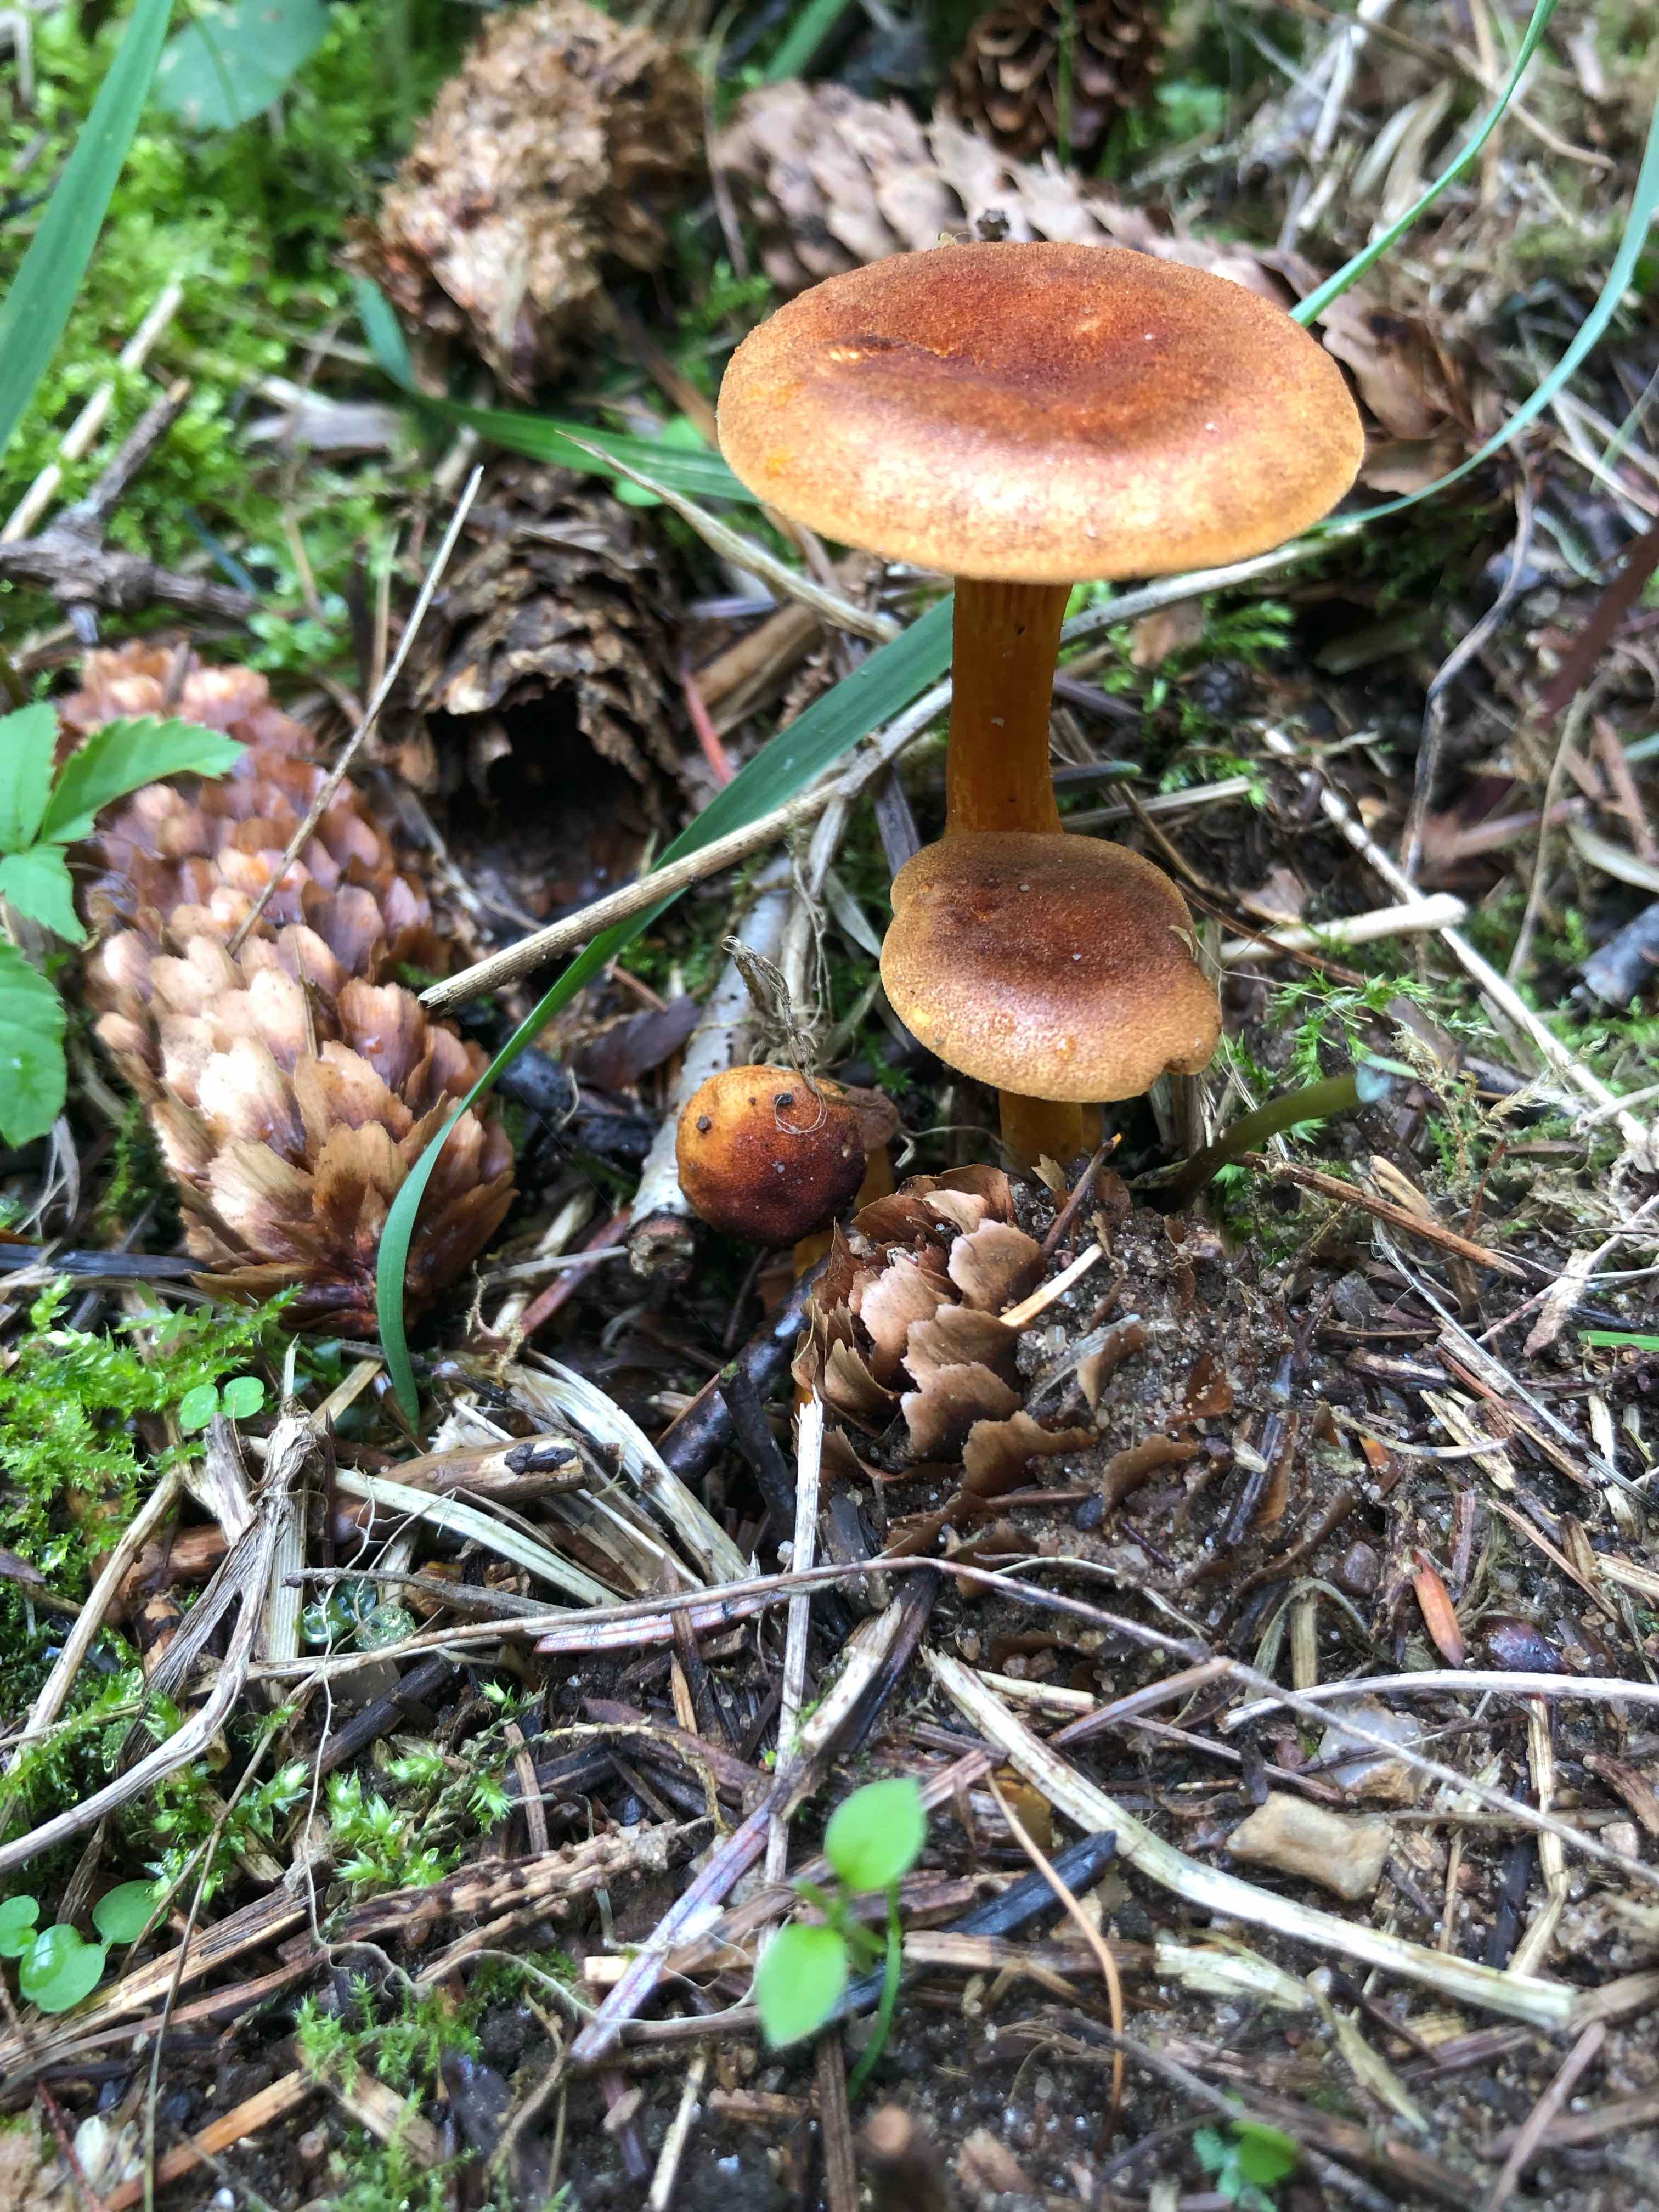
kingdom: Fungi
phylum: Basidiomycota
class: Agaricomycetes
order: Boletales
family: Hygrophoropsidaceae
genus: Hygrophoropsis
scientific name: Hygrophoropsis aurantiaca
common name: almindelig orangekantarel
